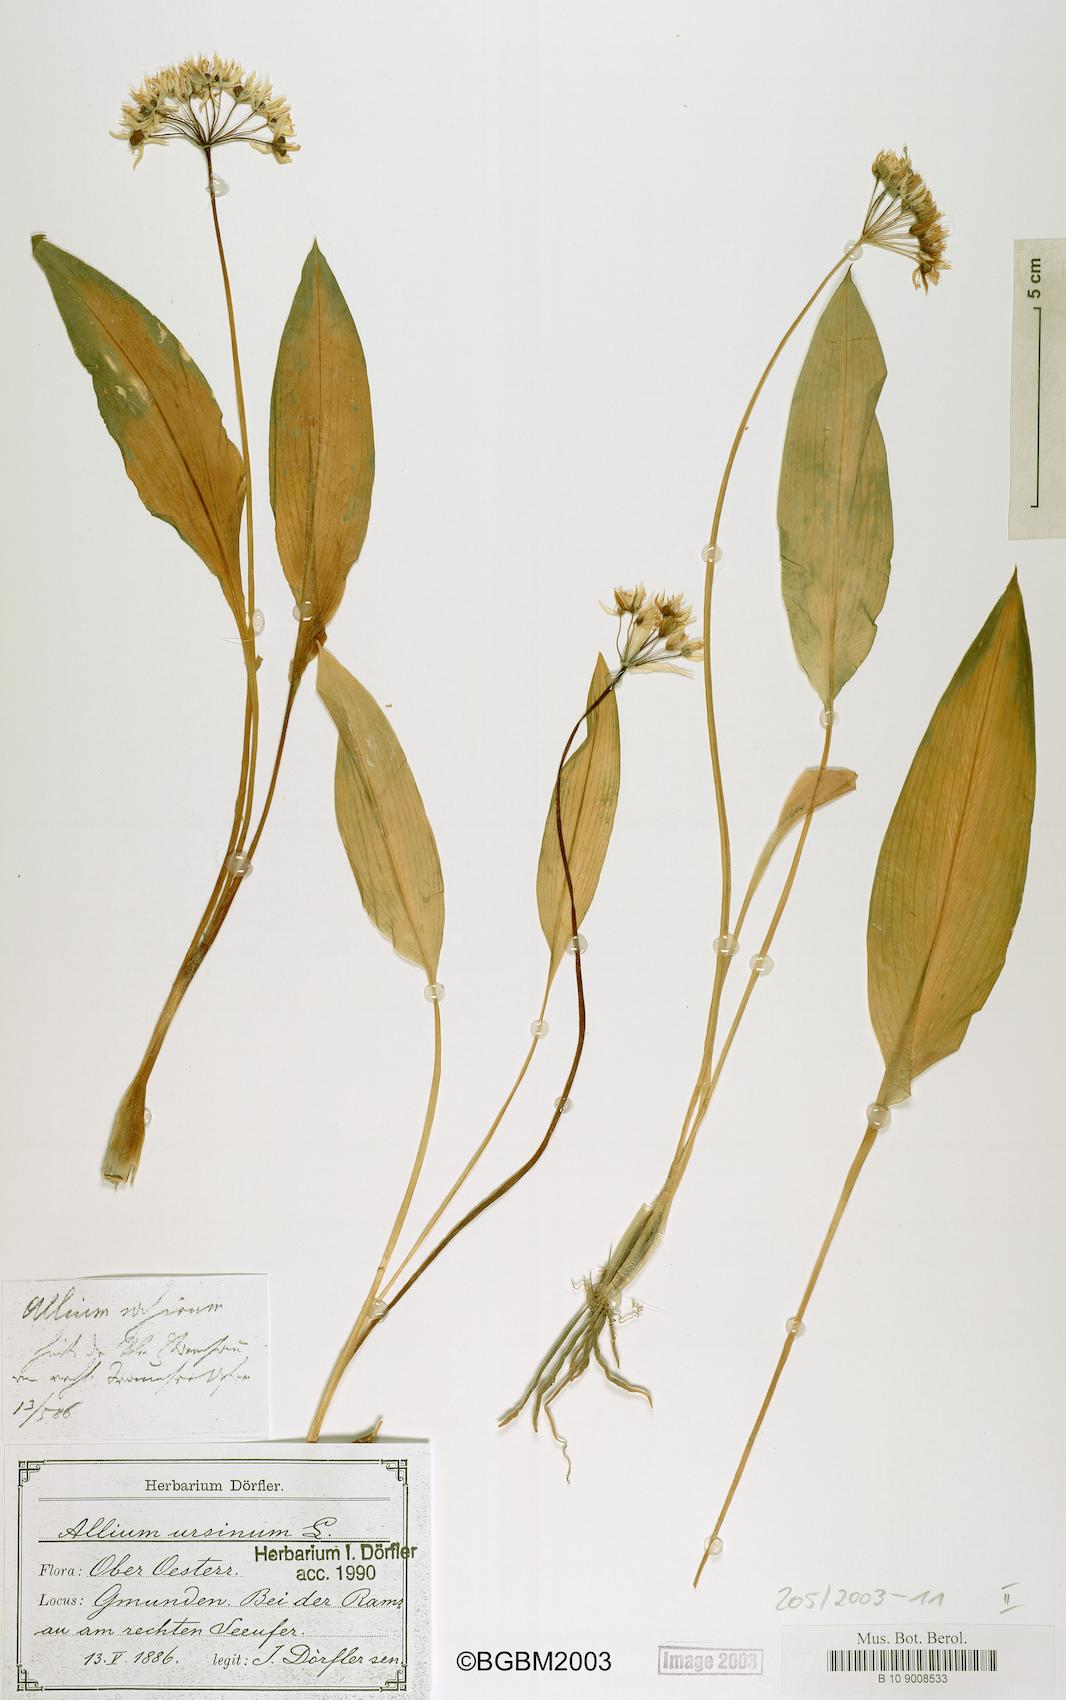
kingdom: Plantae
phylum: Tracheophyta
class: Liliopsida
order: Asparagales
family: Amaryllidaceae
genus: Allium
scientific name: Allium ursinum
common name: Ramsons
